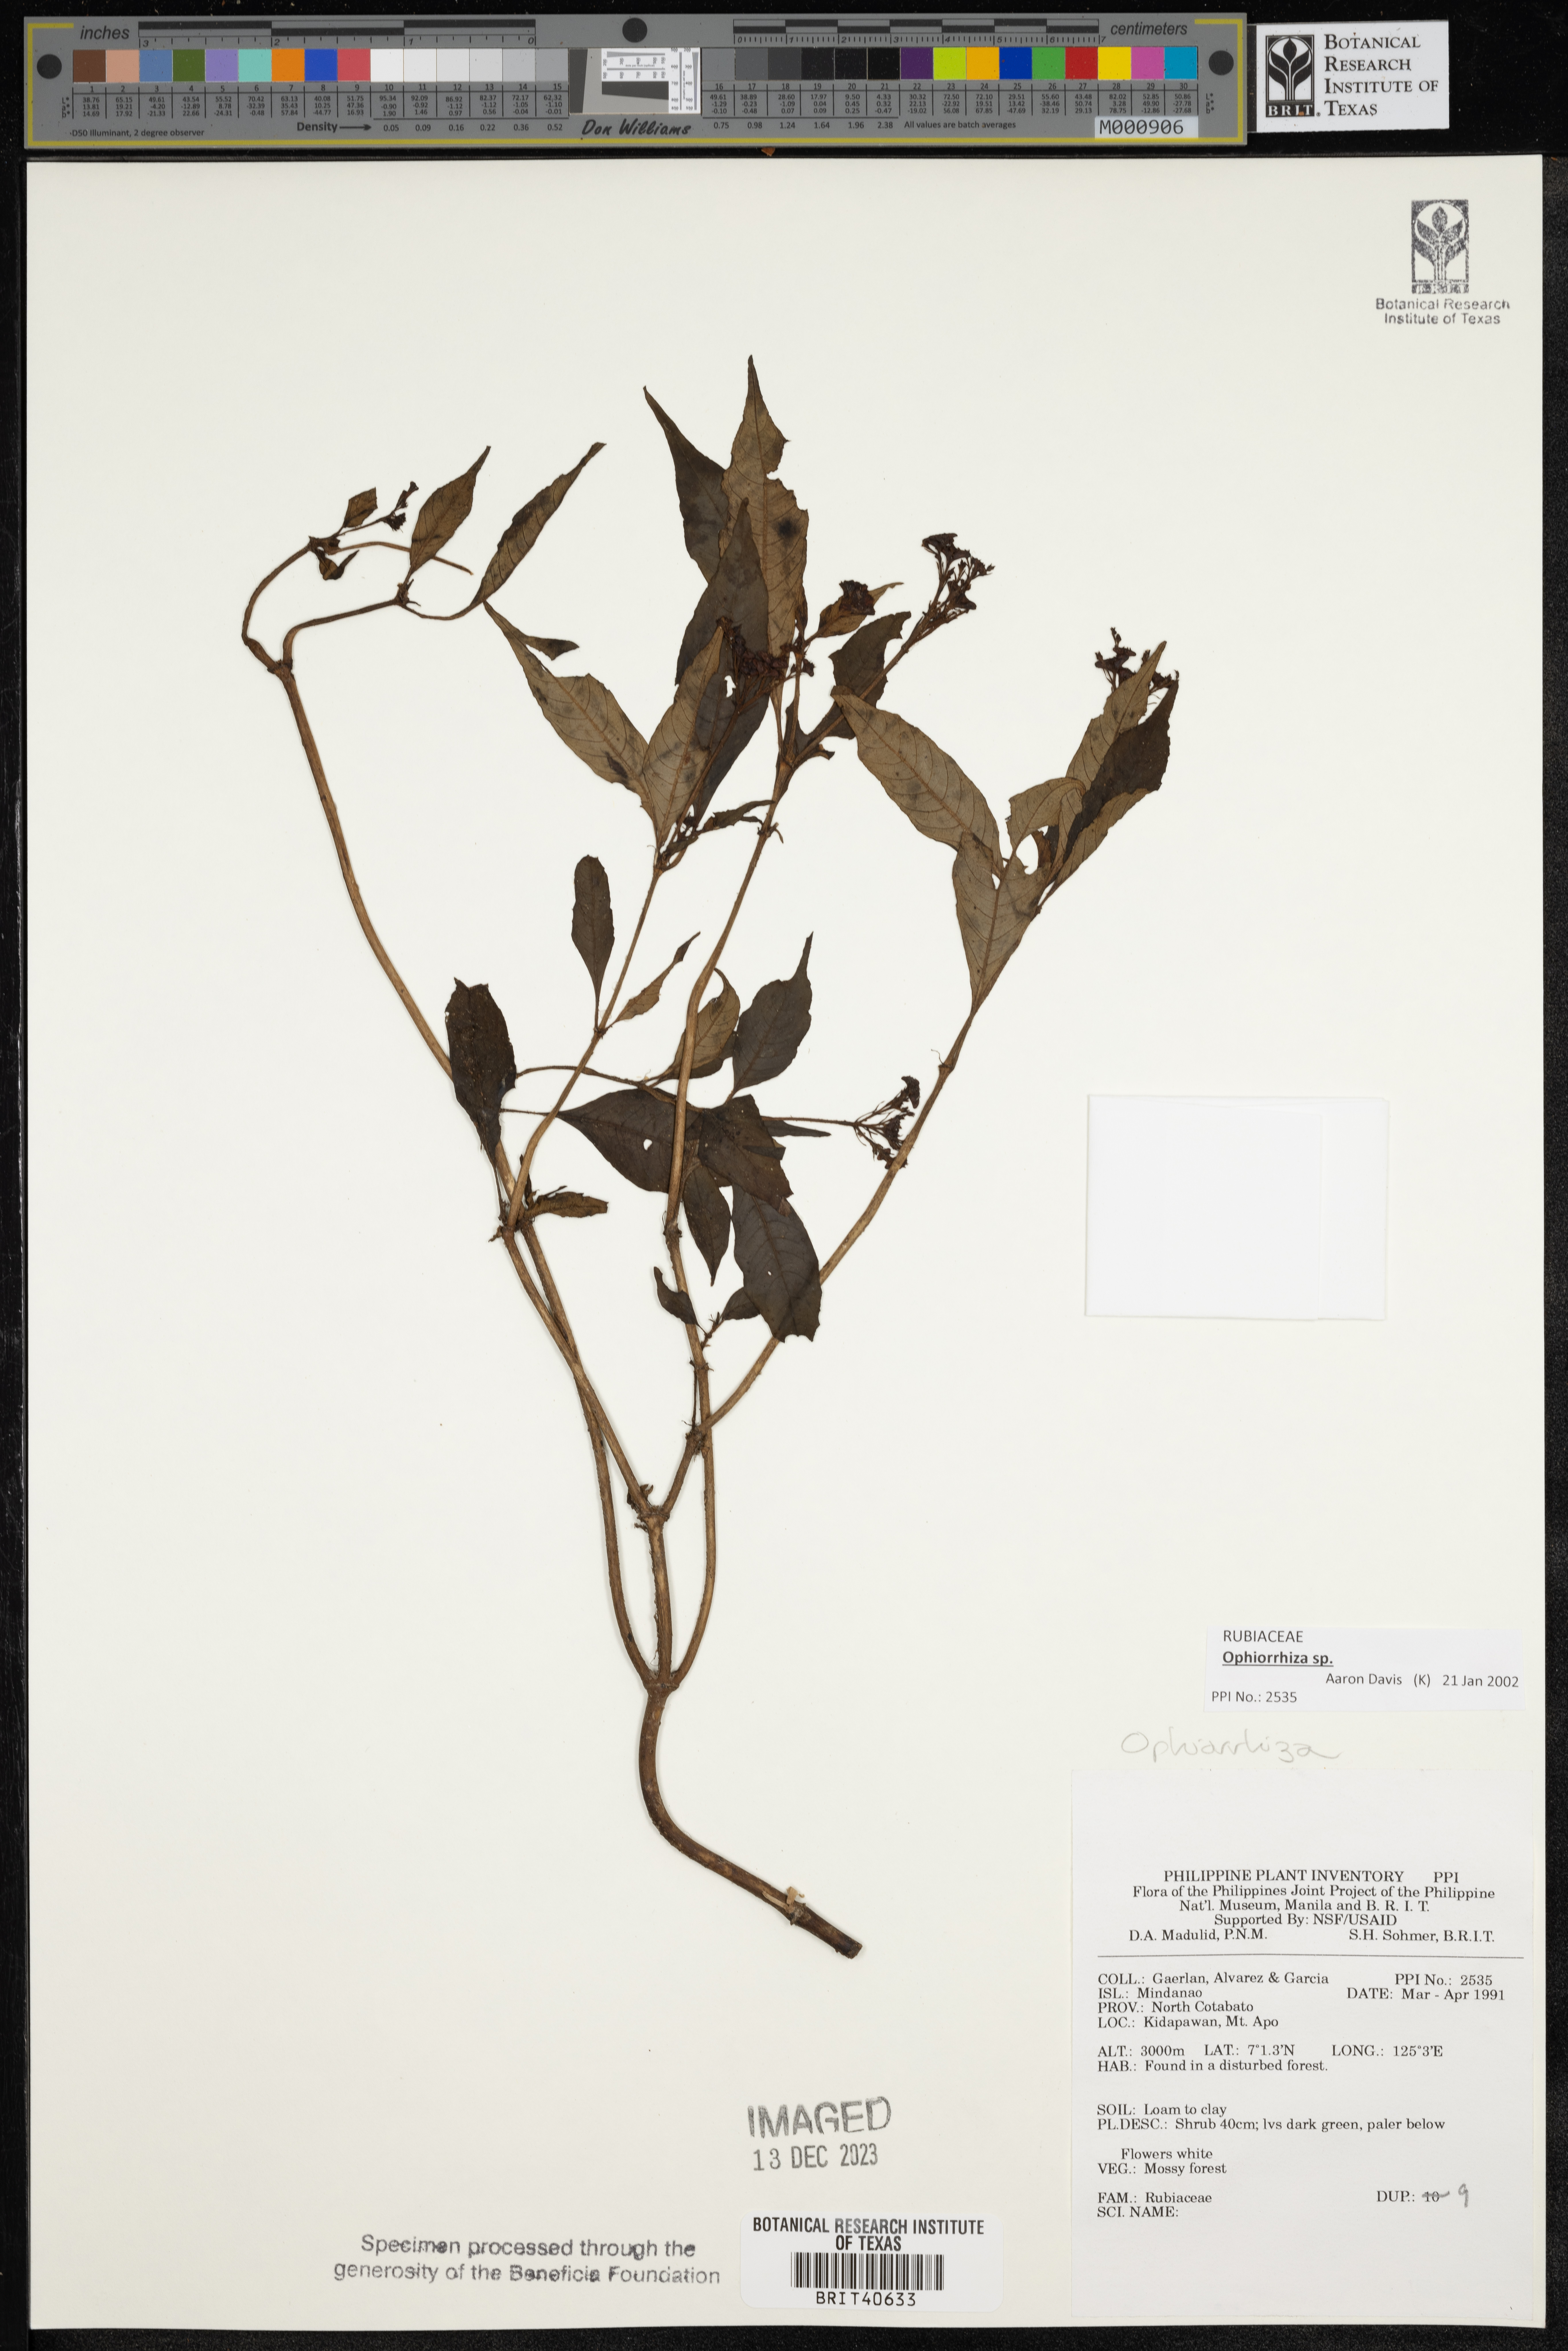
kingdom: Plantae
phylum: Tracheophyta
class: Magnoliopsida
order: Gentianales
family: Rubiaceae
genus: Ophiorrhiza
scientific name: Ophiorrhiza
